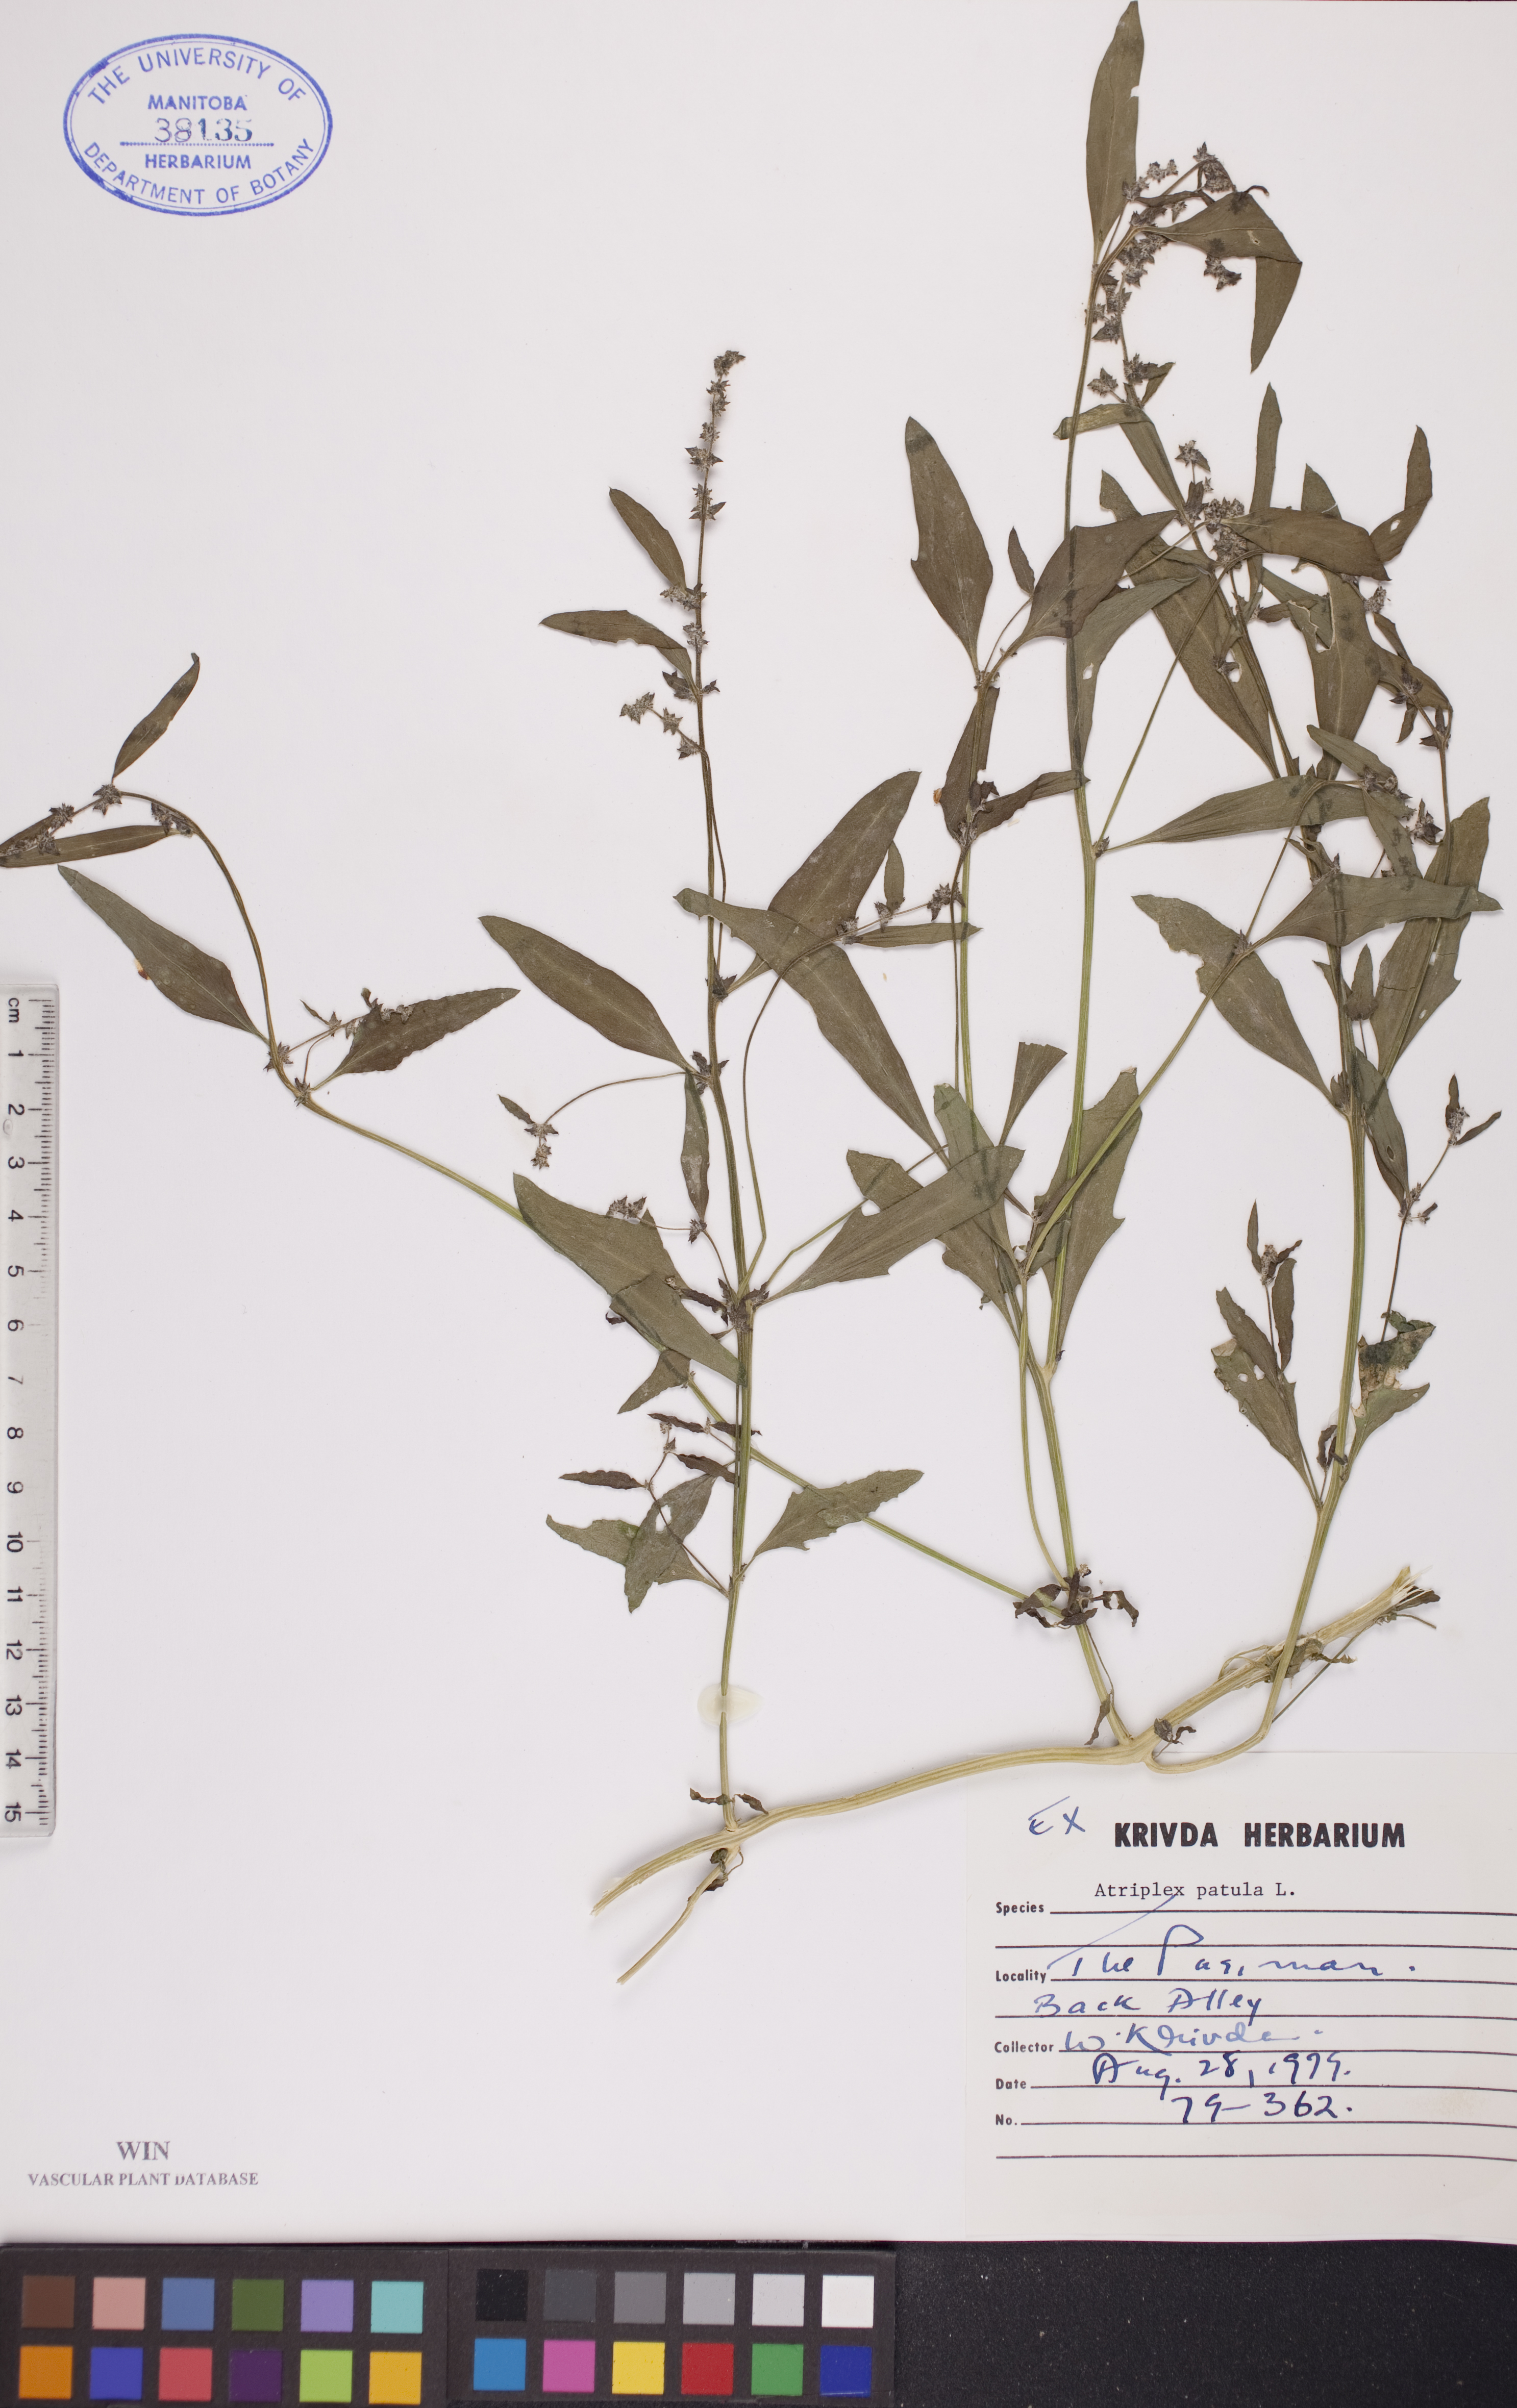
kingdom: Plantae
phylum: Tracheophyta
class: Magnoliopsida
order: Caryophyllales
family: Amaranthaceae
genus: Atriplex
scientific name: Atriplex patula
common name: Common orache
